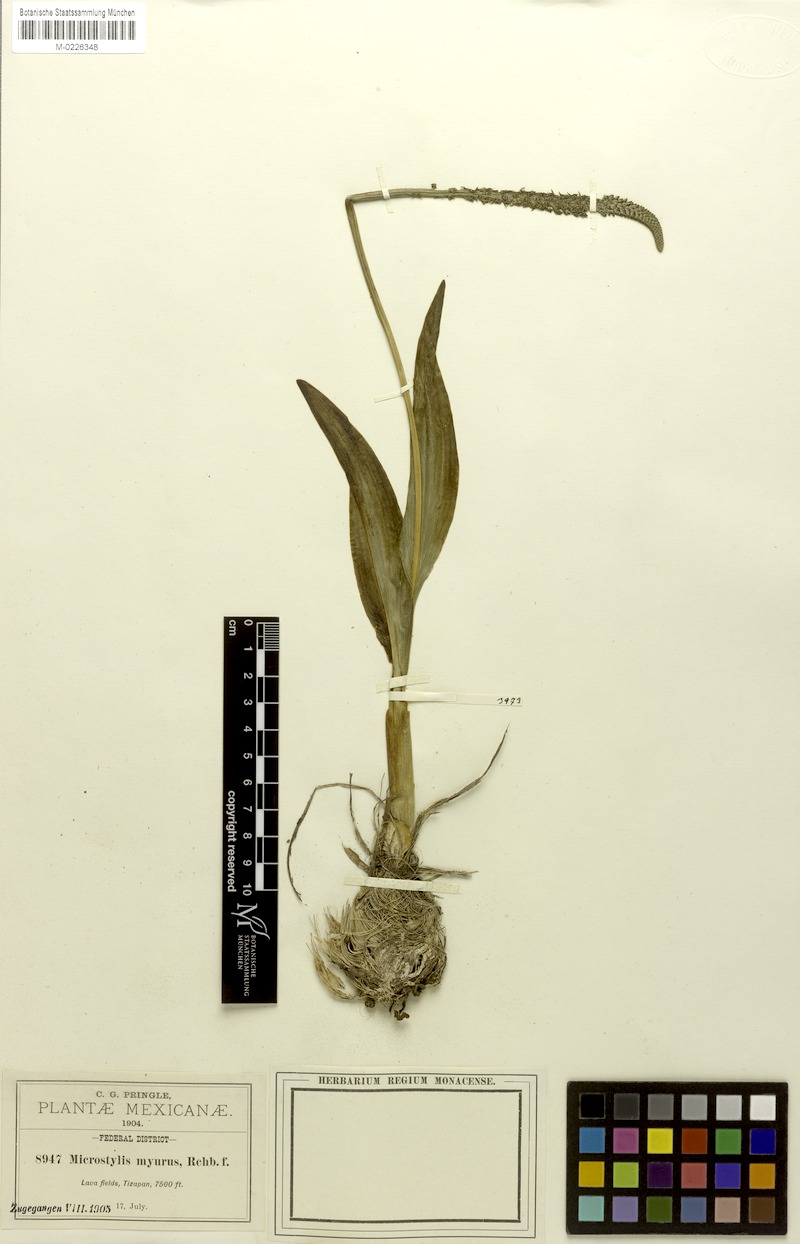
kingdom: Plantae
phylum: Tracheophyta
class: Liliopsida
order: Asparagales
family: Orchidaceae
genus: Malaxis
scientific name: Malaxis myurus
